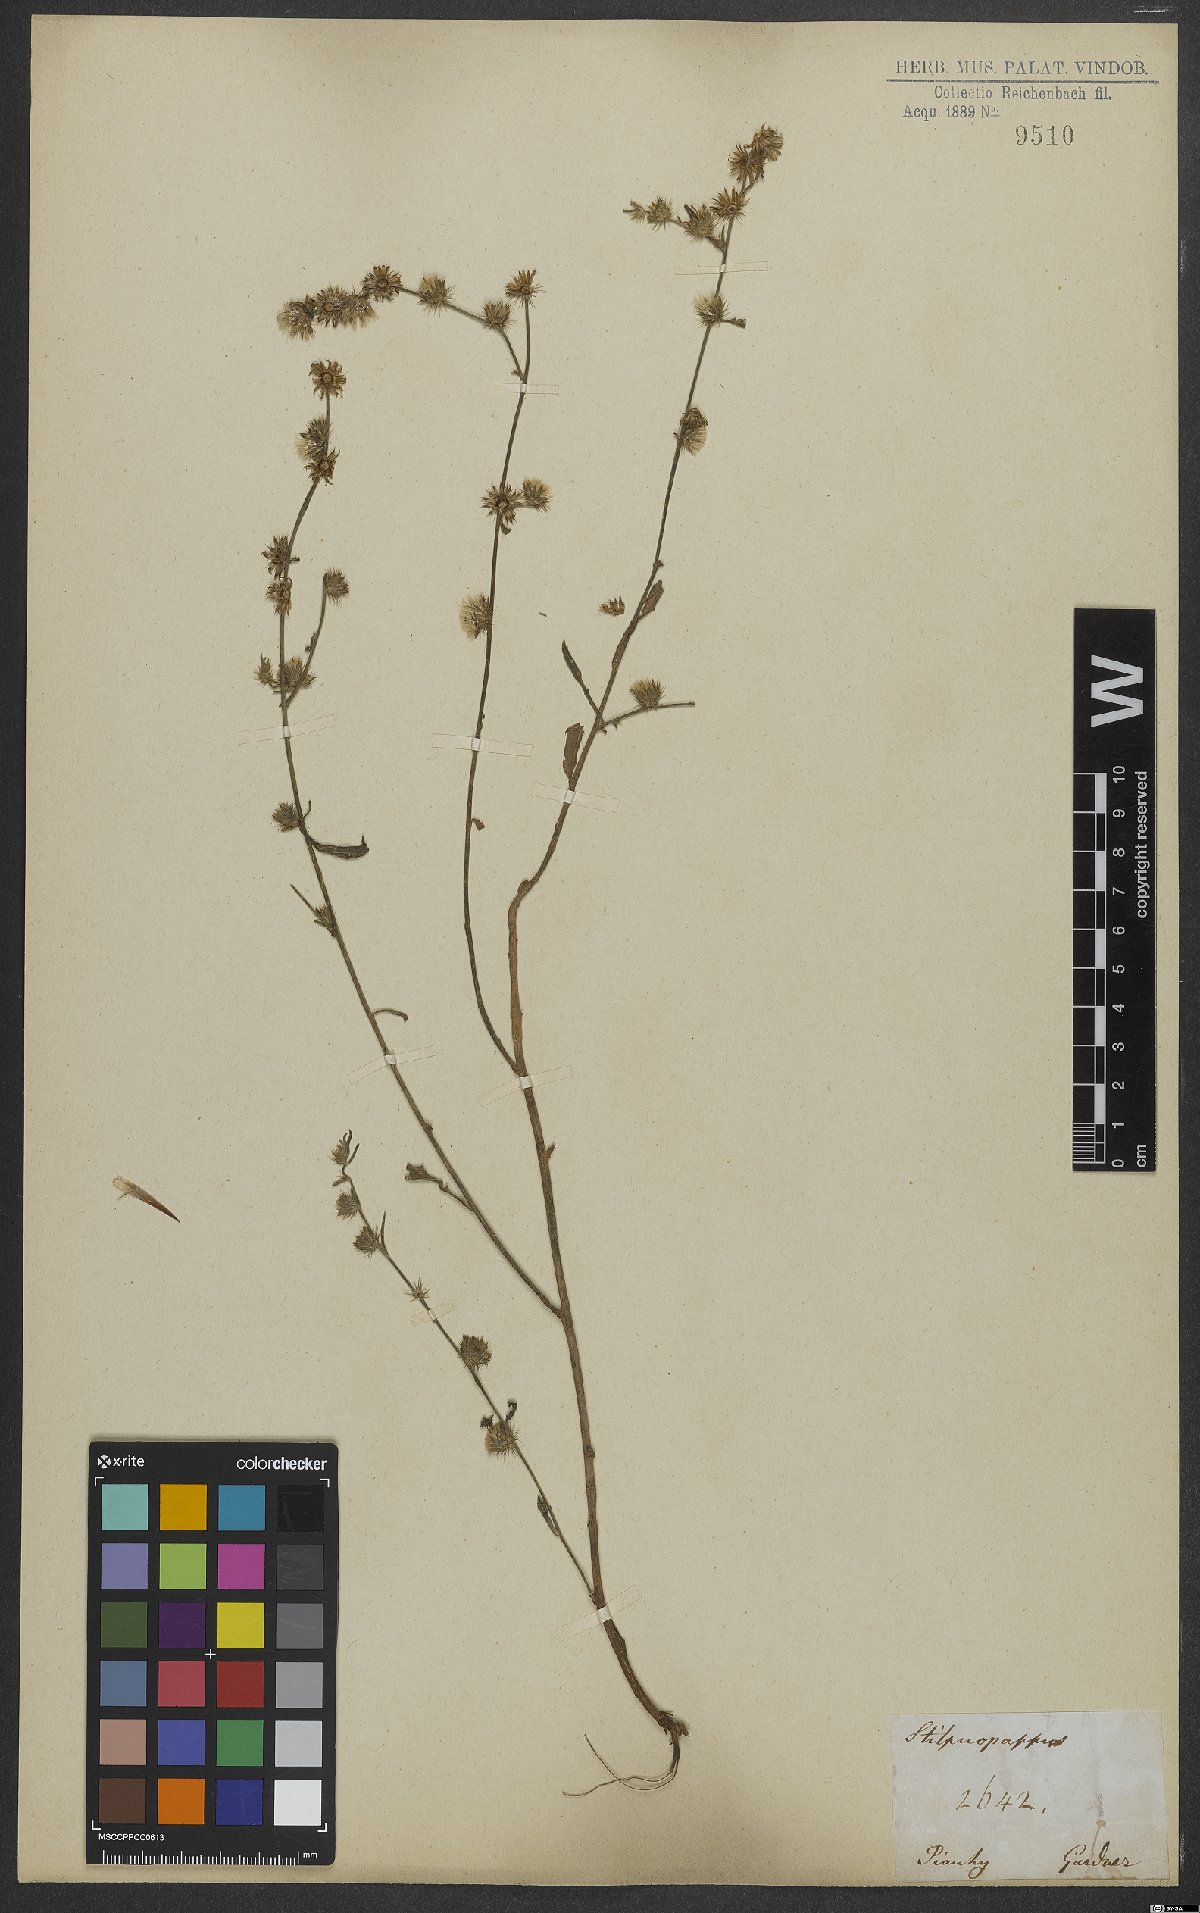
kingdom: Plantae
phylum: Tracheophyta
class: Magnoliopsida
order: Asterales
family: Asteraceae
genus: Stilpnopappus
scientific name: Stilpnopappus
